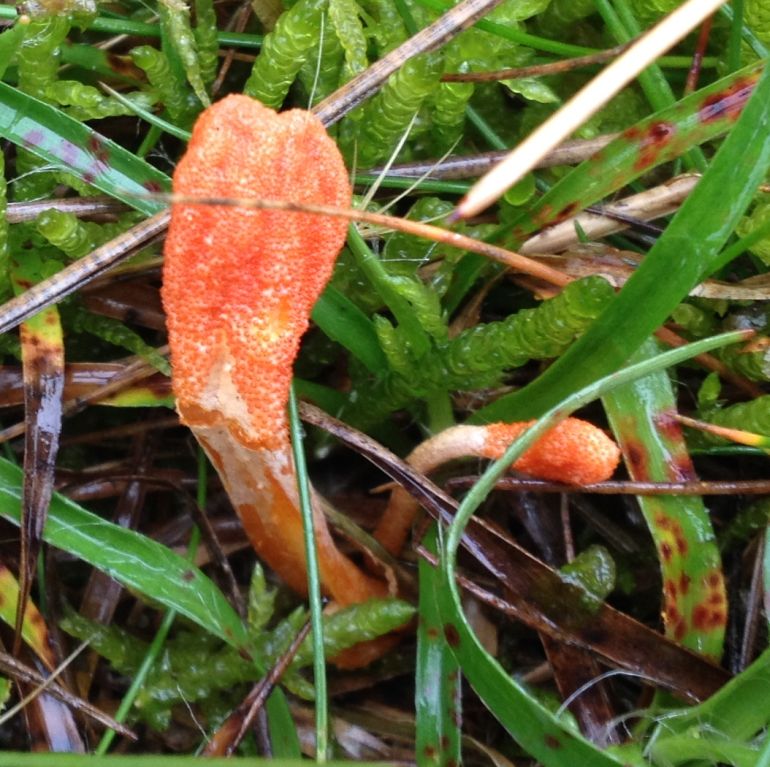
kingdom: Fungi
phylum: Ascomycota
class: Sordariomycetes
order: Hypocreales
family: Cordycipitaceae
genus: Cordyceps
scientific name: Cordyceps militaris
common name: puppe-snyltekølle
